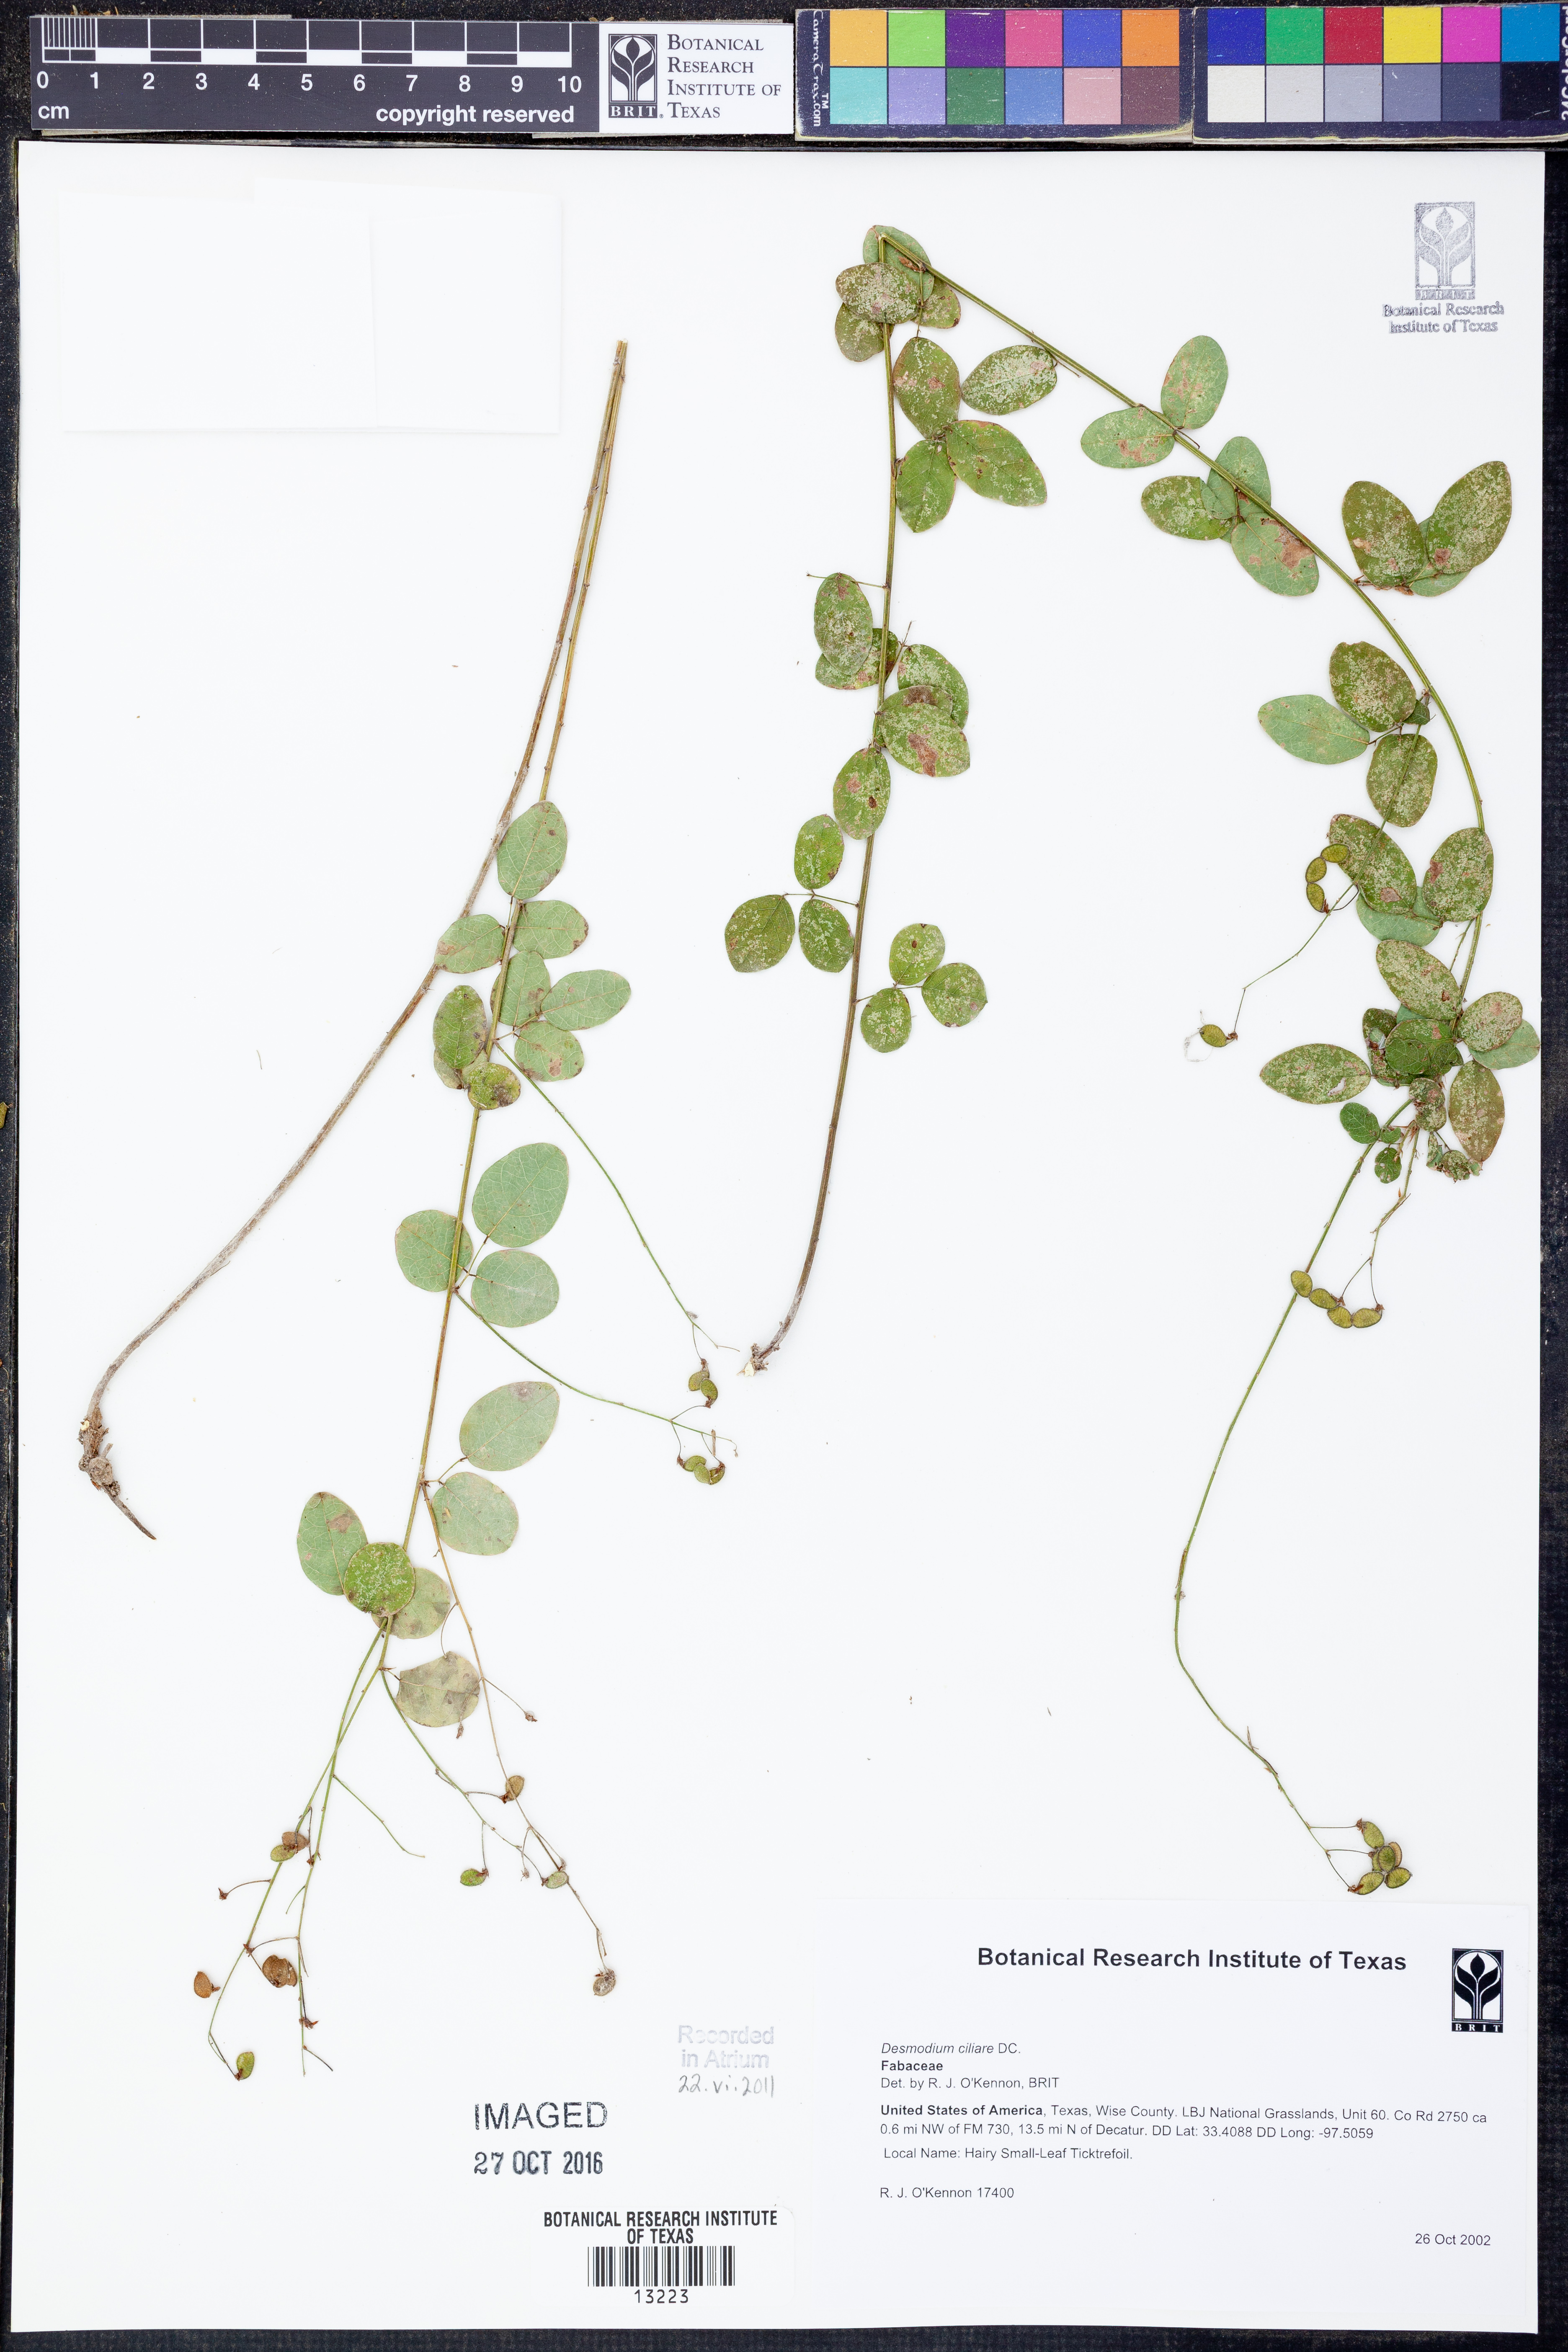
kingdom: Plantae
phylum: Tracheophyta
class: Magnoliopsida
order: Fabales
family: Fabaceae
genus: Desmodium
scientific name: Desmodium ciliare
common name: Hairy small-leaf ticktrefoil
